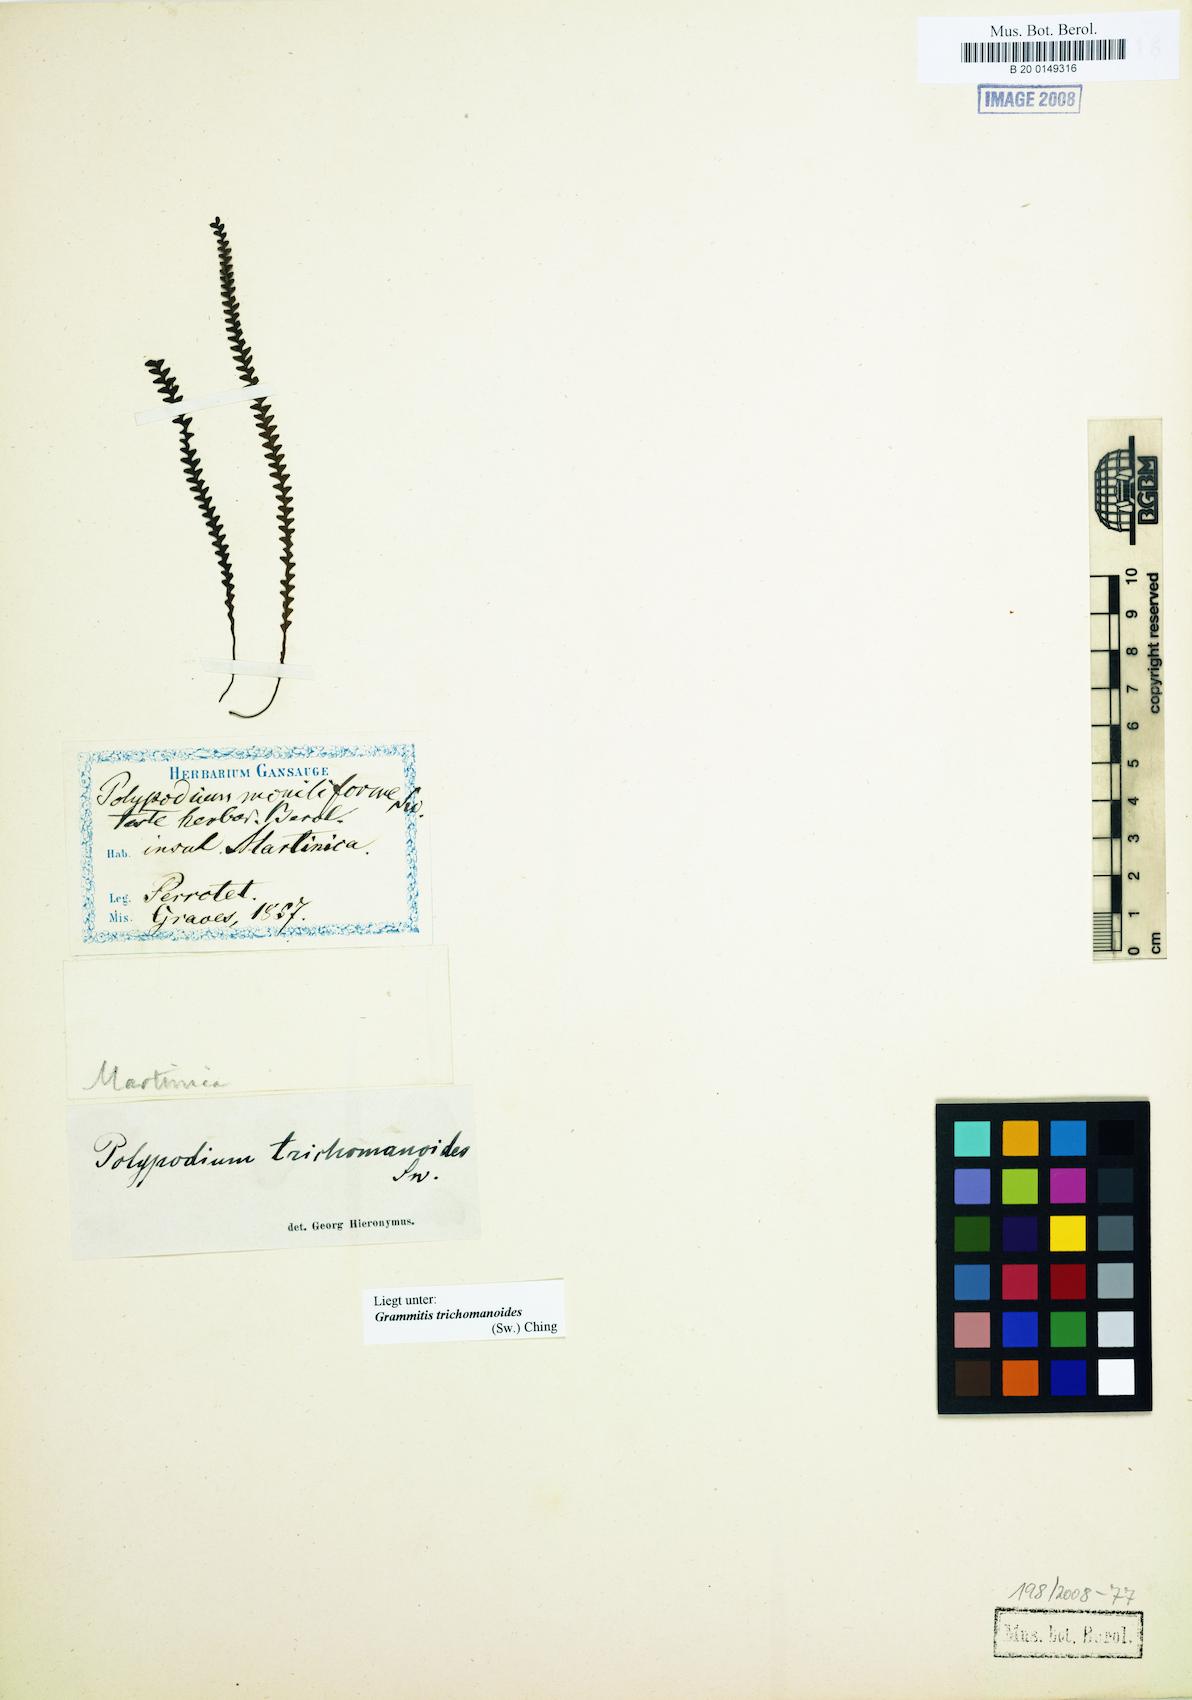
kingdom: Plantae
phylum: Tracheophyta
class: Polypodiopsida
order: Polypodiales
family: Polypodiaceae
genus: Moranopteris
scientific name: Moranopteris serricula
